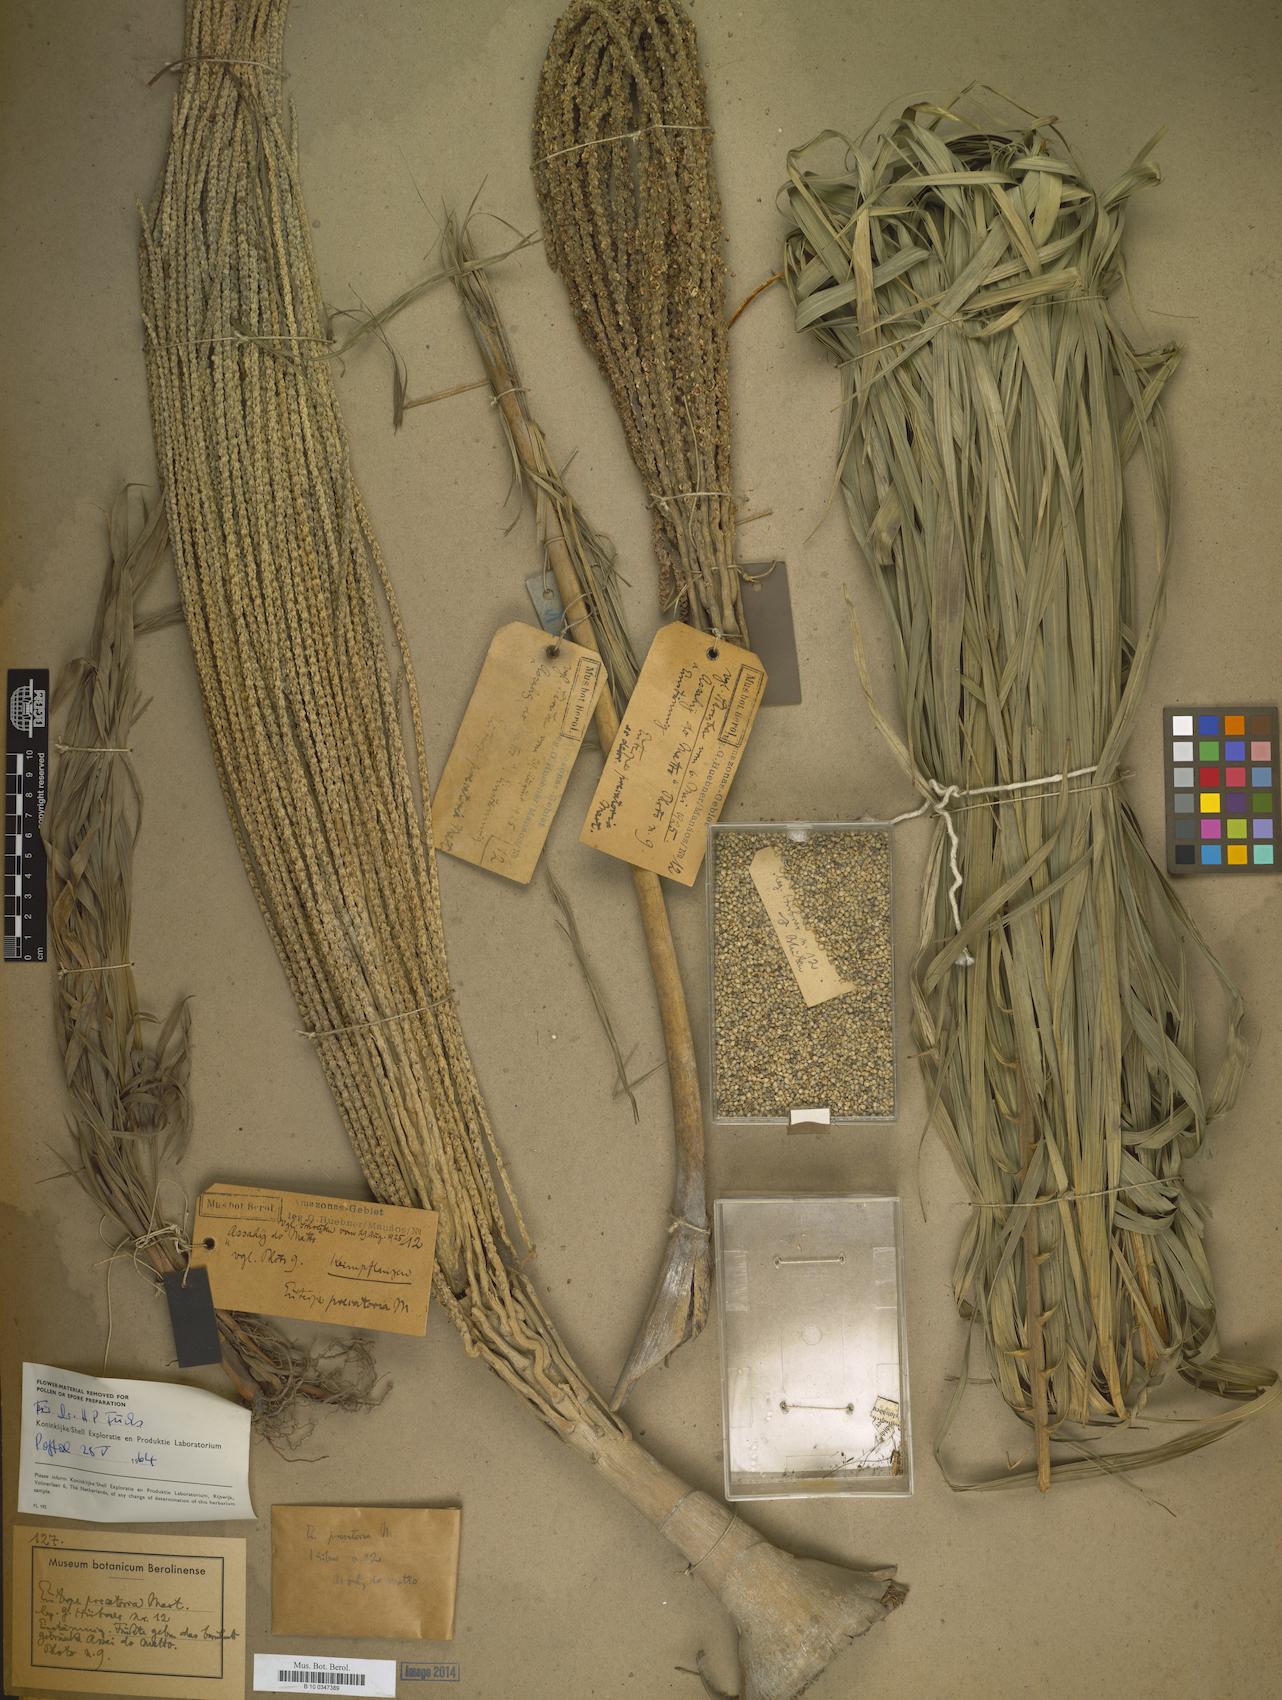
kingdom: Plantae
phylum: Tracheophyta
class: Liliopsida
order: Arecales
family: Arecaceae
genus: Euterpe
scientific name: Euterpe
